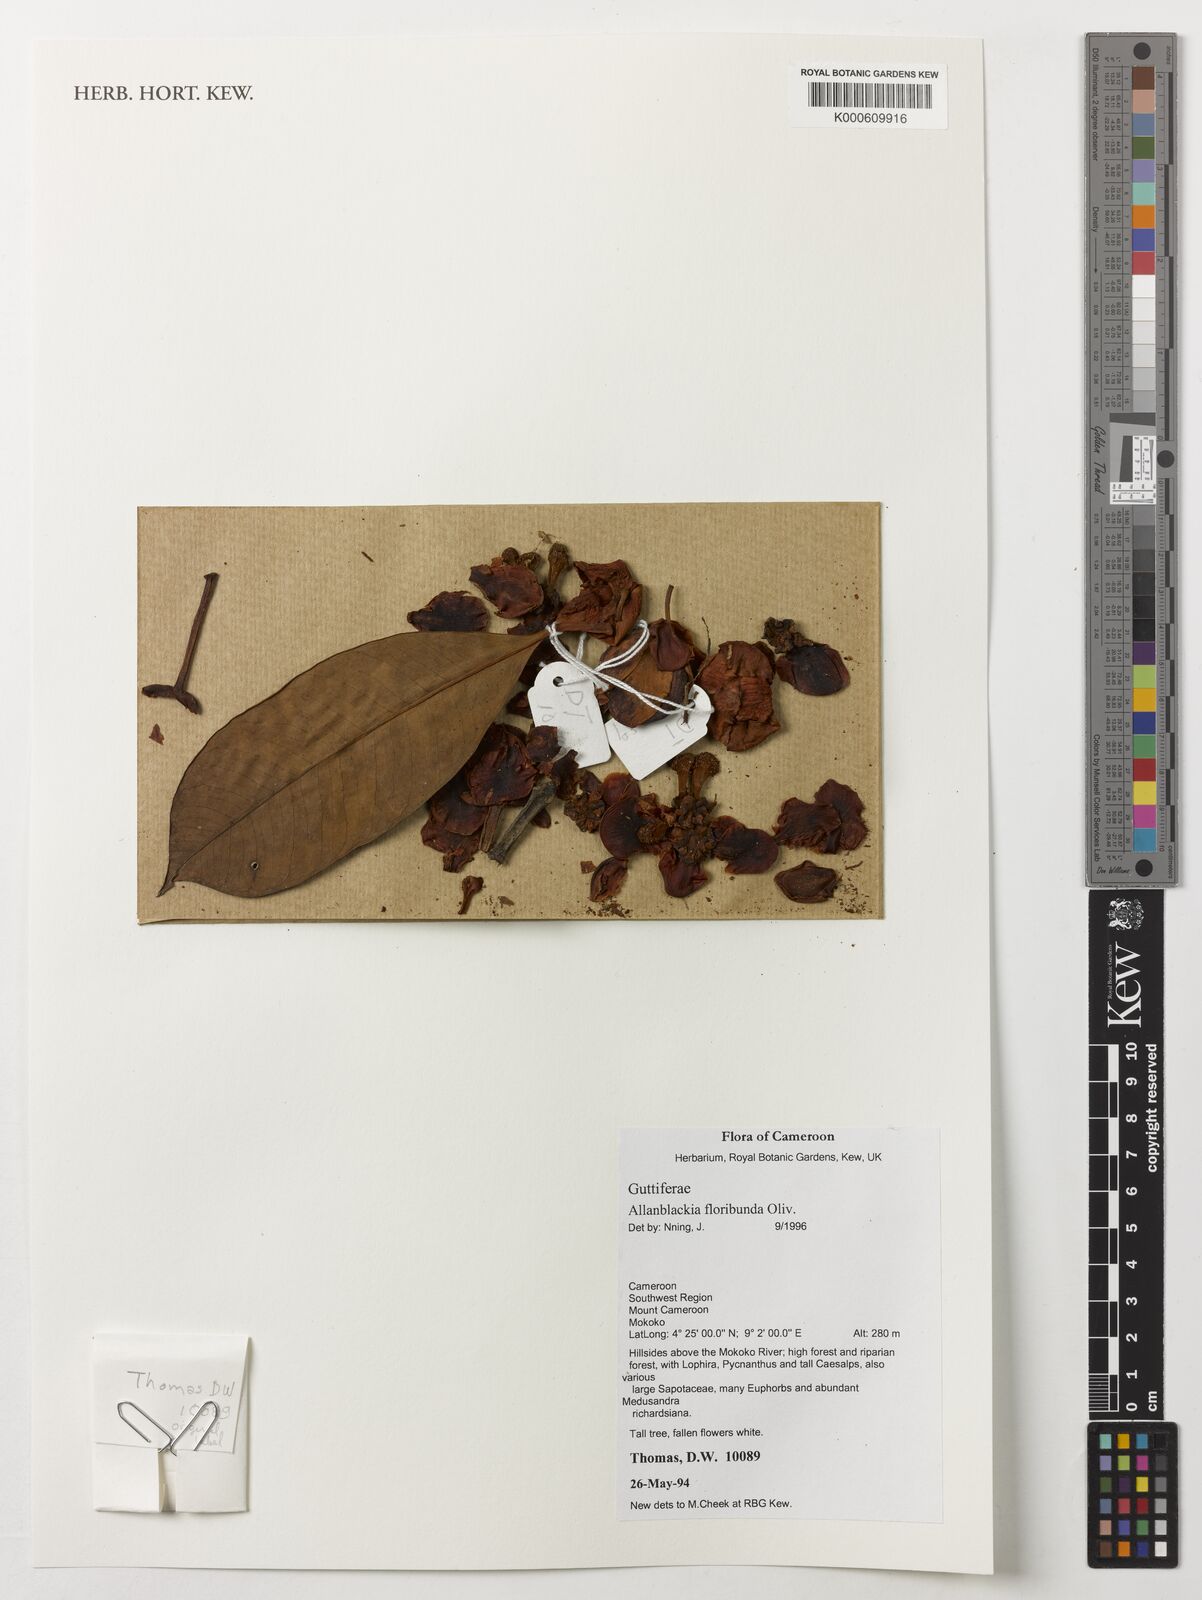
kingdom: Plantae
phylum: Tracheophyta
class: Magnoliopsida
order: Malpighiales
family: Clusiaceae
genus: Allanblackia
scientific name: Allanblackia floribunda
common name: Tallow tree
